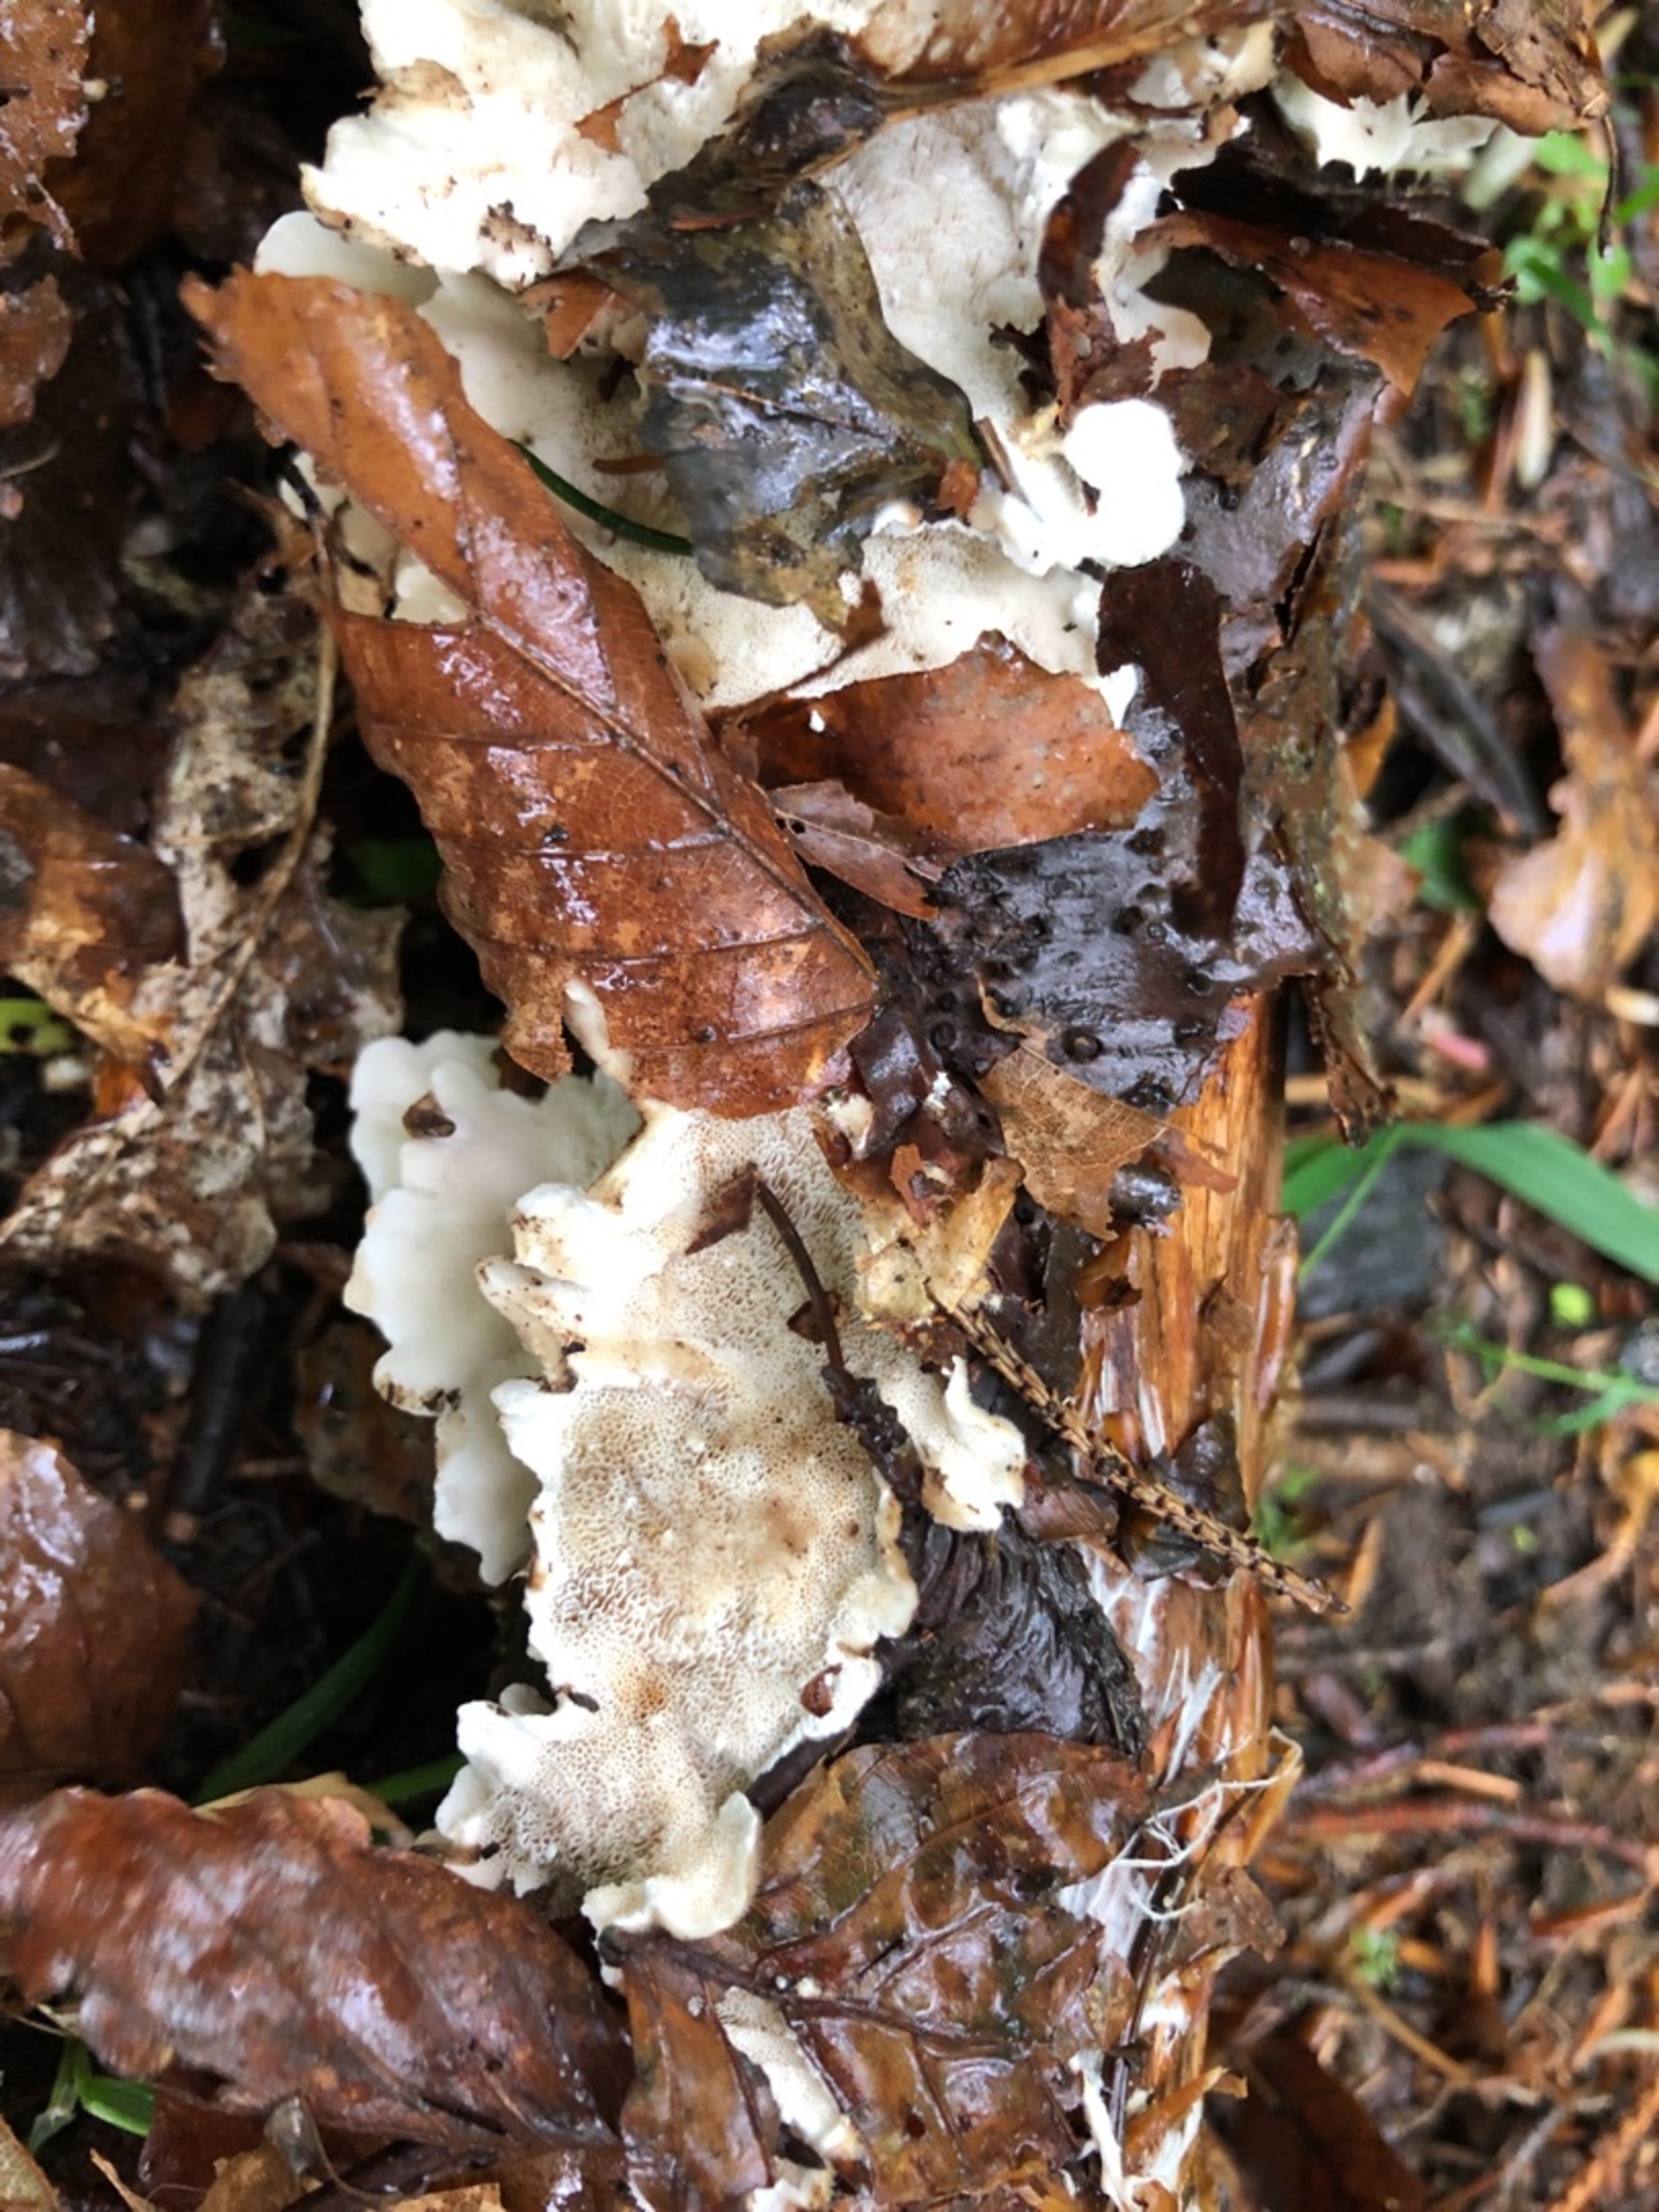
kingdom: Fungi
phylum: Basidiomycota
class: Agaricomycetes
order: Polyporales
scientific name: Polyporales
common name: Poresvampordenen
